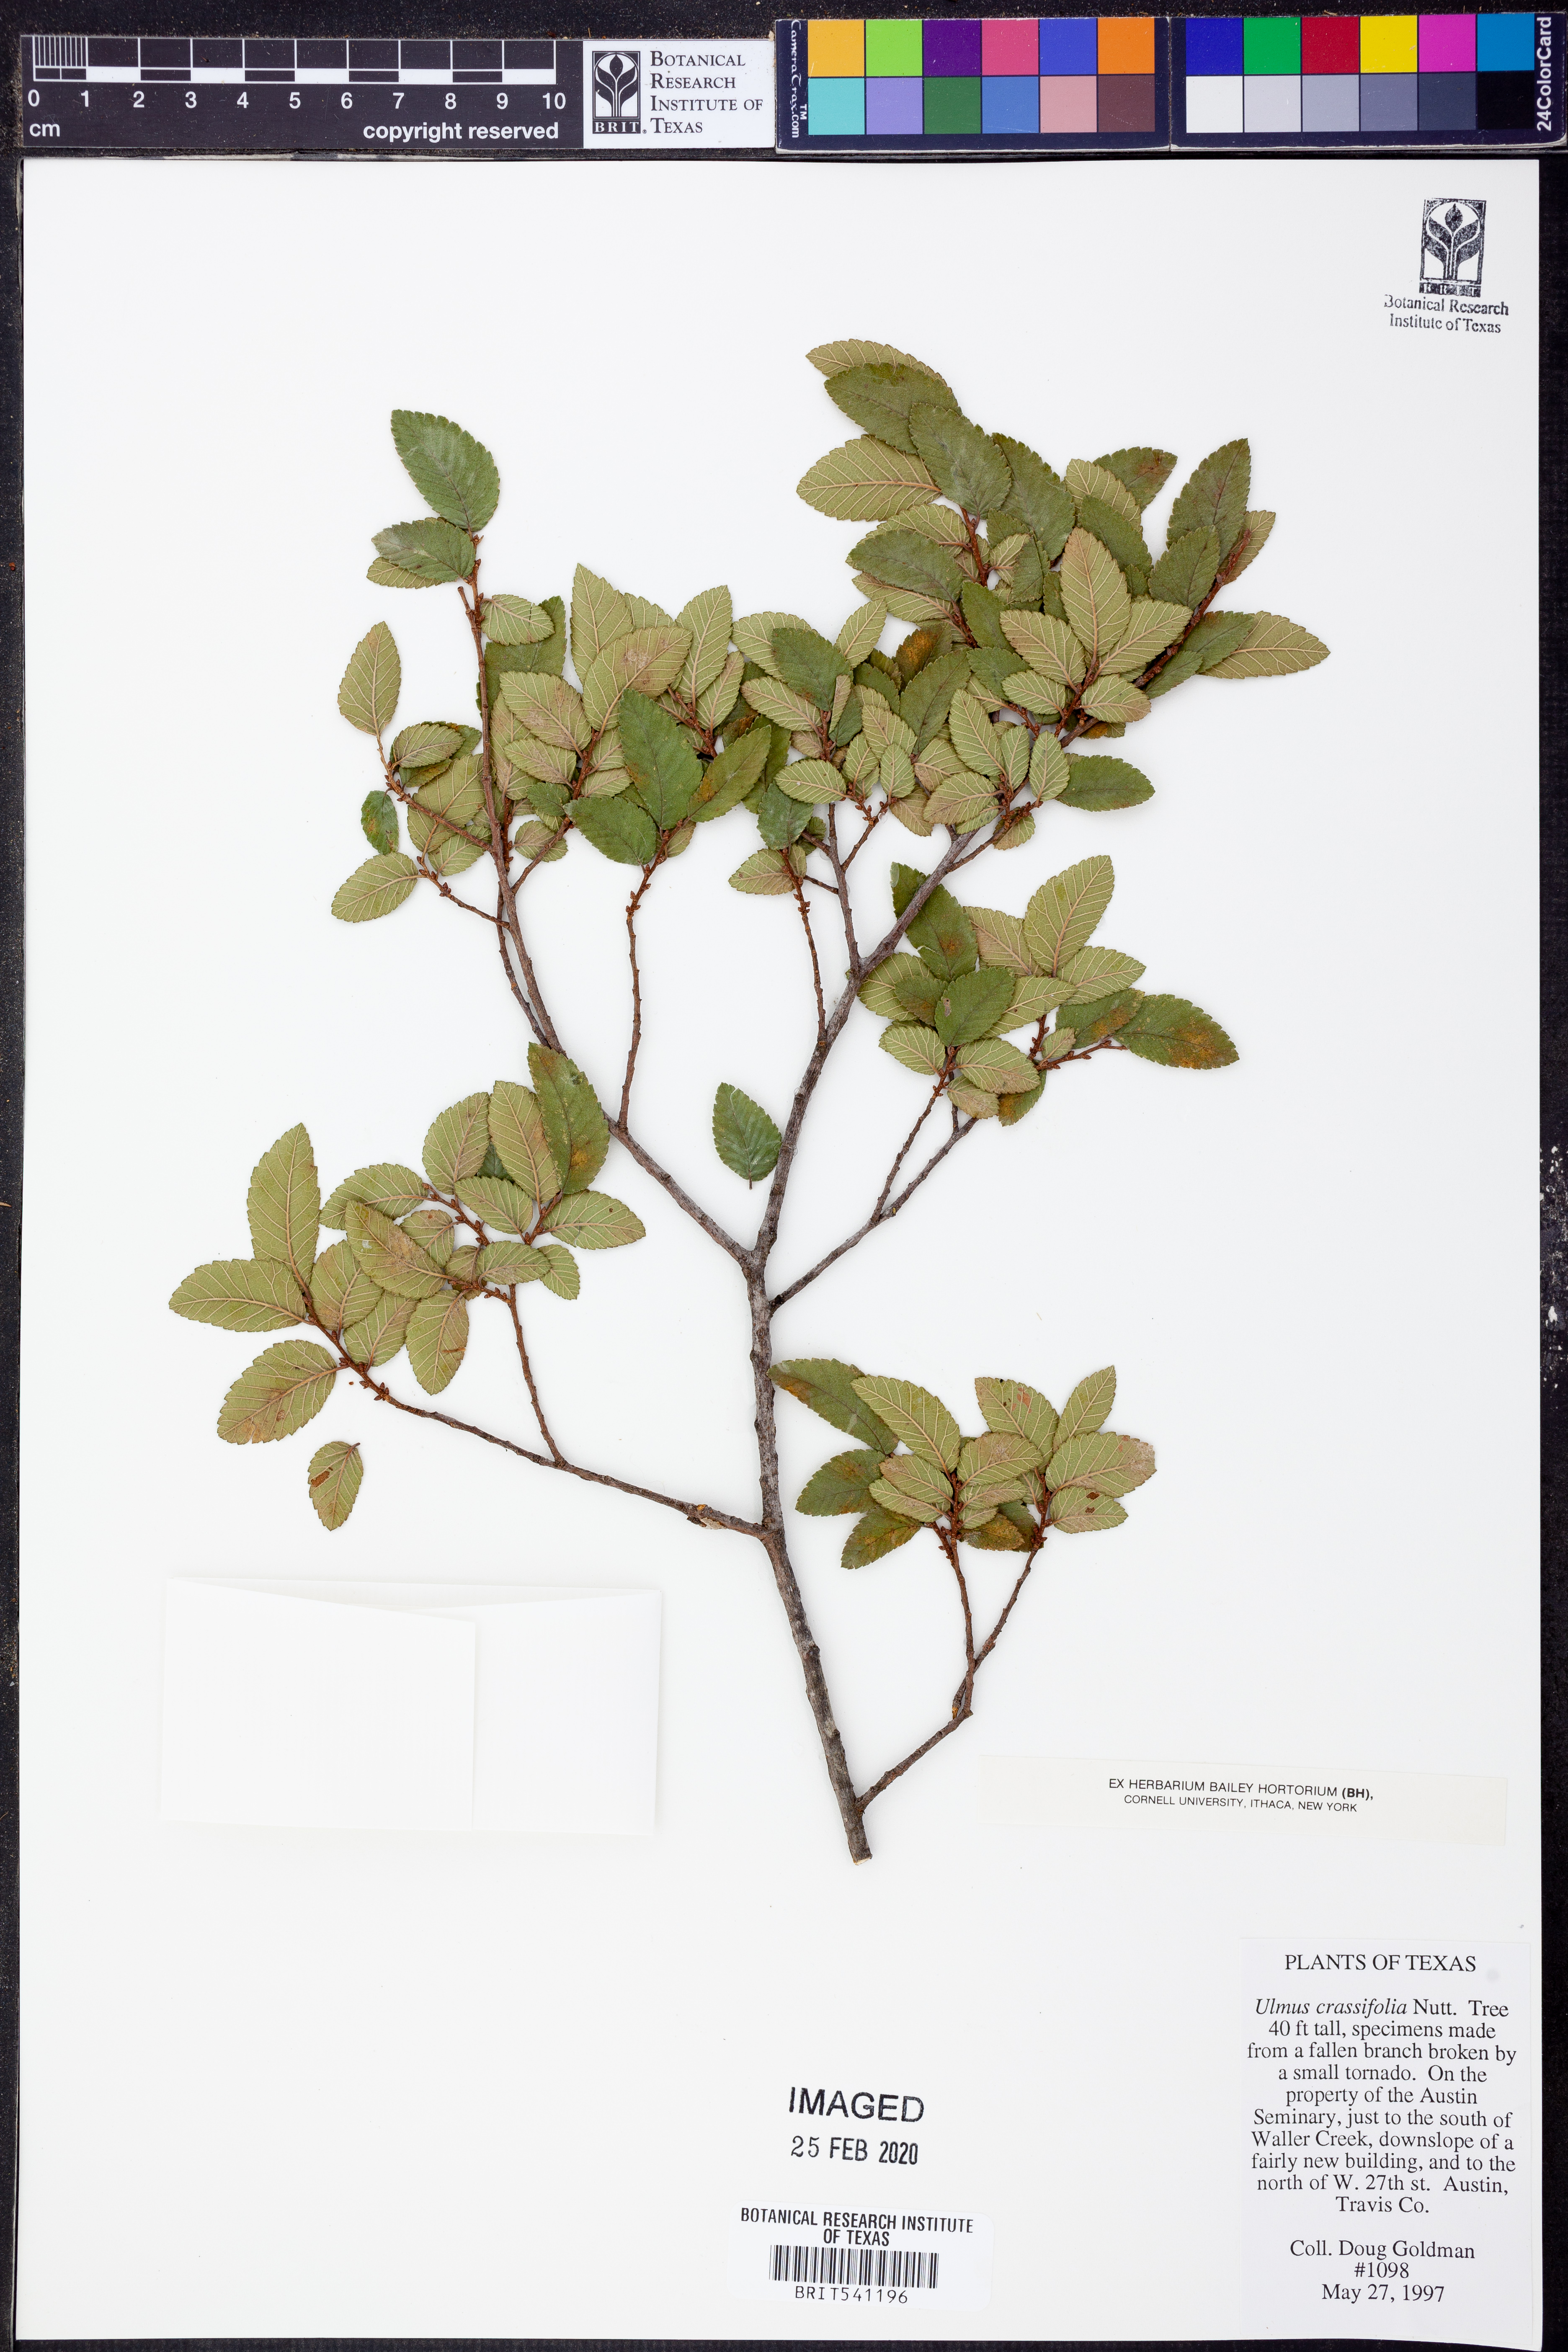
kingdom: Plantae
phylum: Tracheophyta
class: Magnoliopsida
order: Rosales
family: Ulmaceae
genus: Ulmus
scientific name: Ulmus crassifolia
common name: Basket elm
